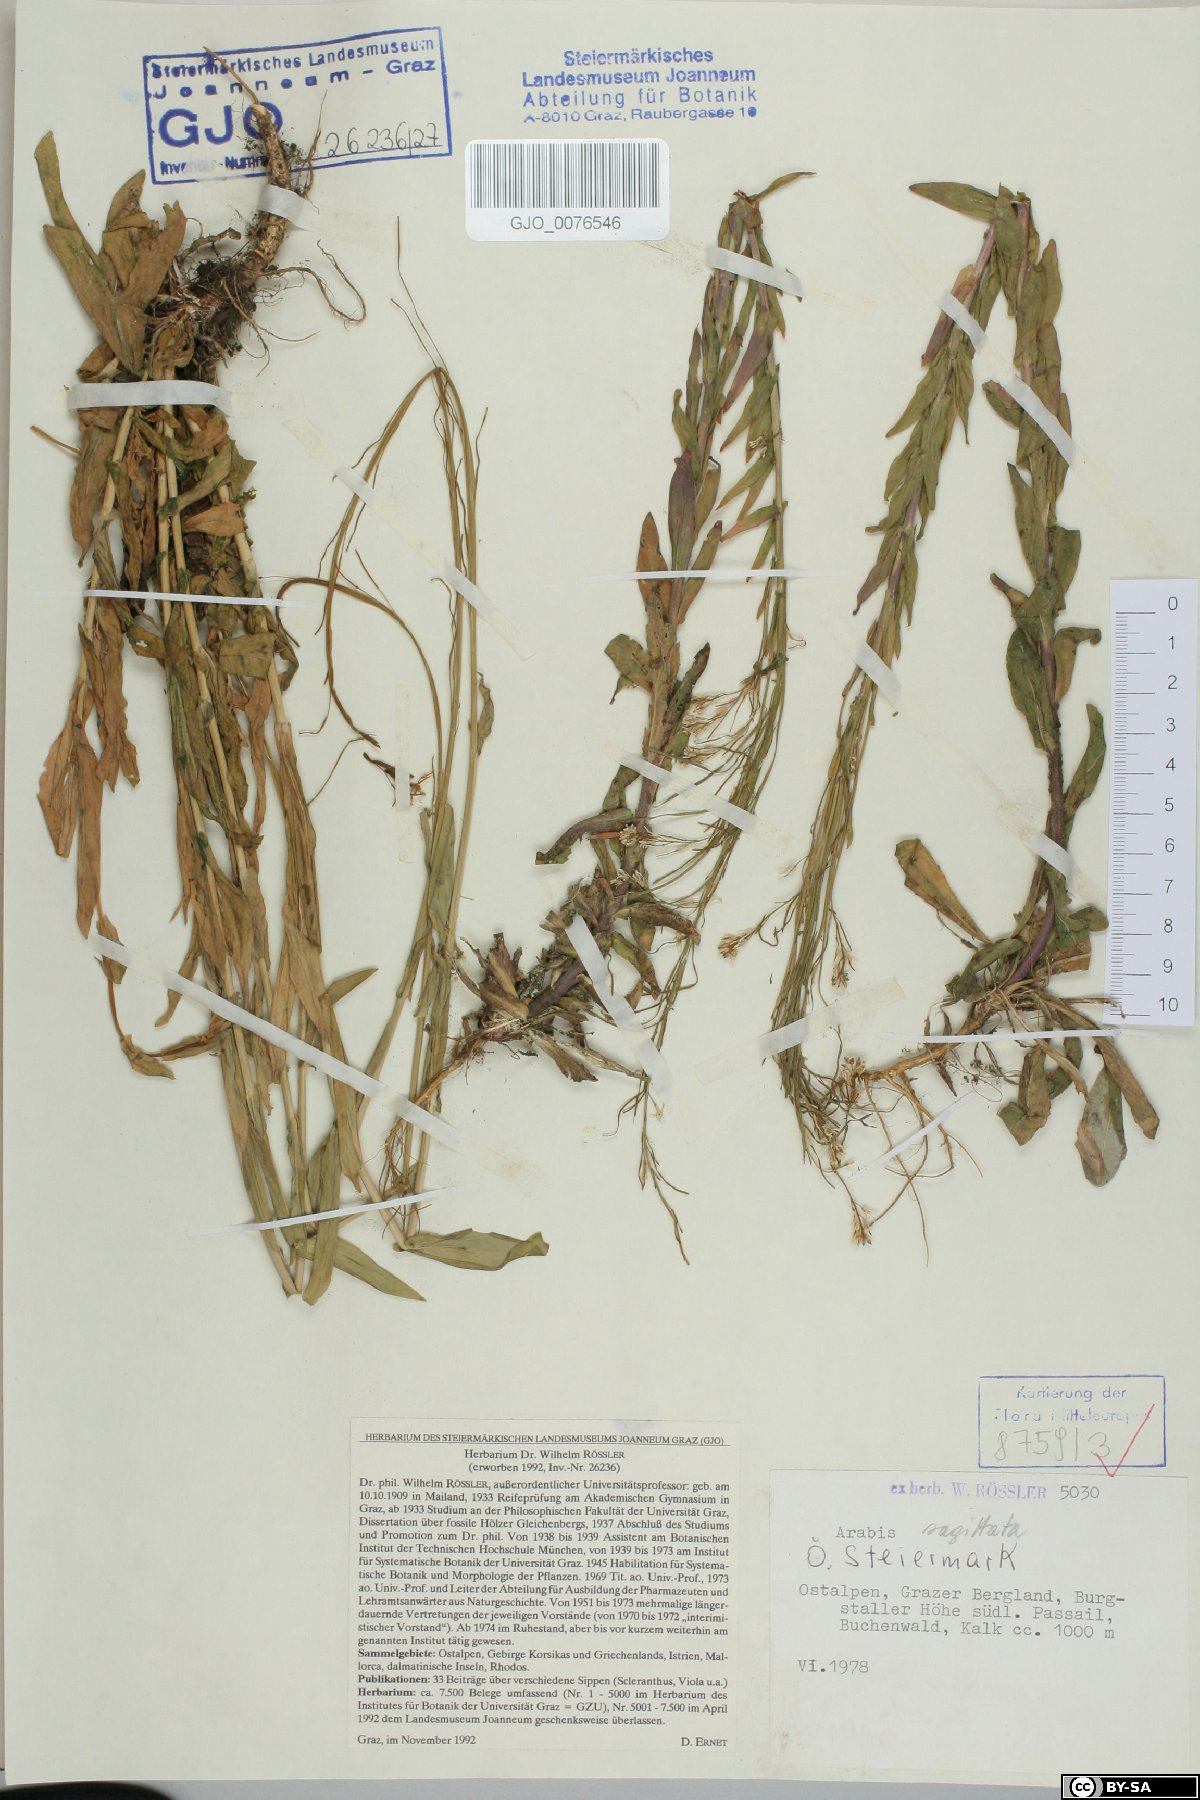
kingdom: Plantae
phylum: Tracheophyta
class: Magnoliopsida
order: Brassicales
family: Brassicaceae
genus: Arabis
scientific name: Arabis sagittata
